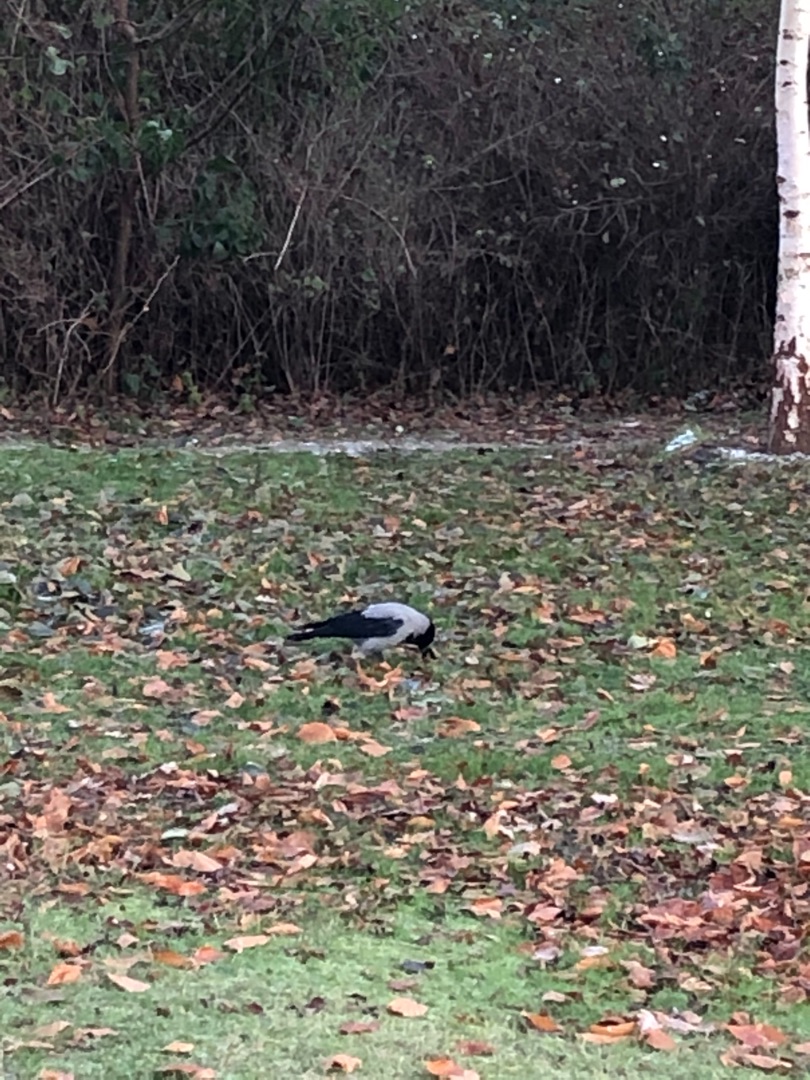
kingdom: Animalia
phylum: Chordata
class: Aves
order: Passeriformes
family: Corvidae
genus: Corvus
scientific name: Corvus cornix
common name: Gråkrage
